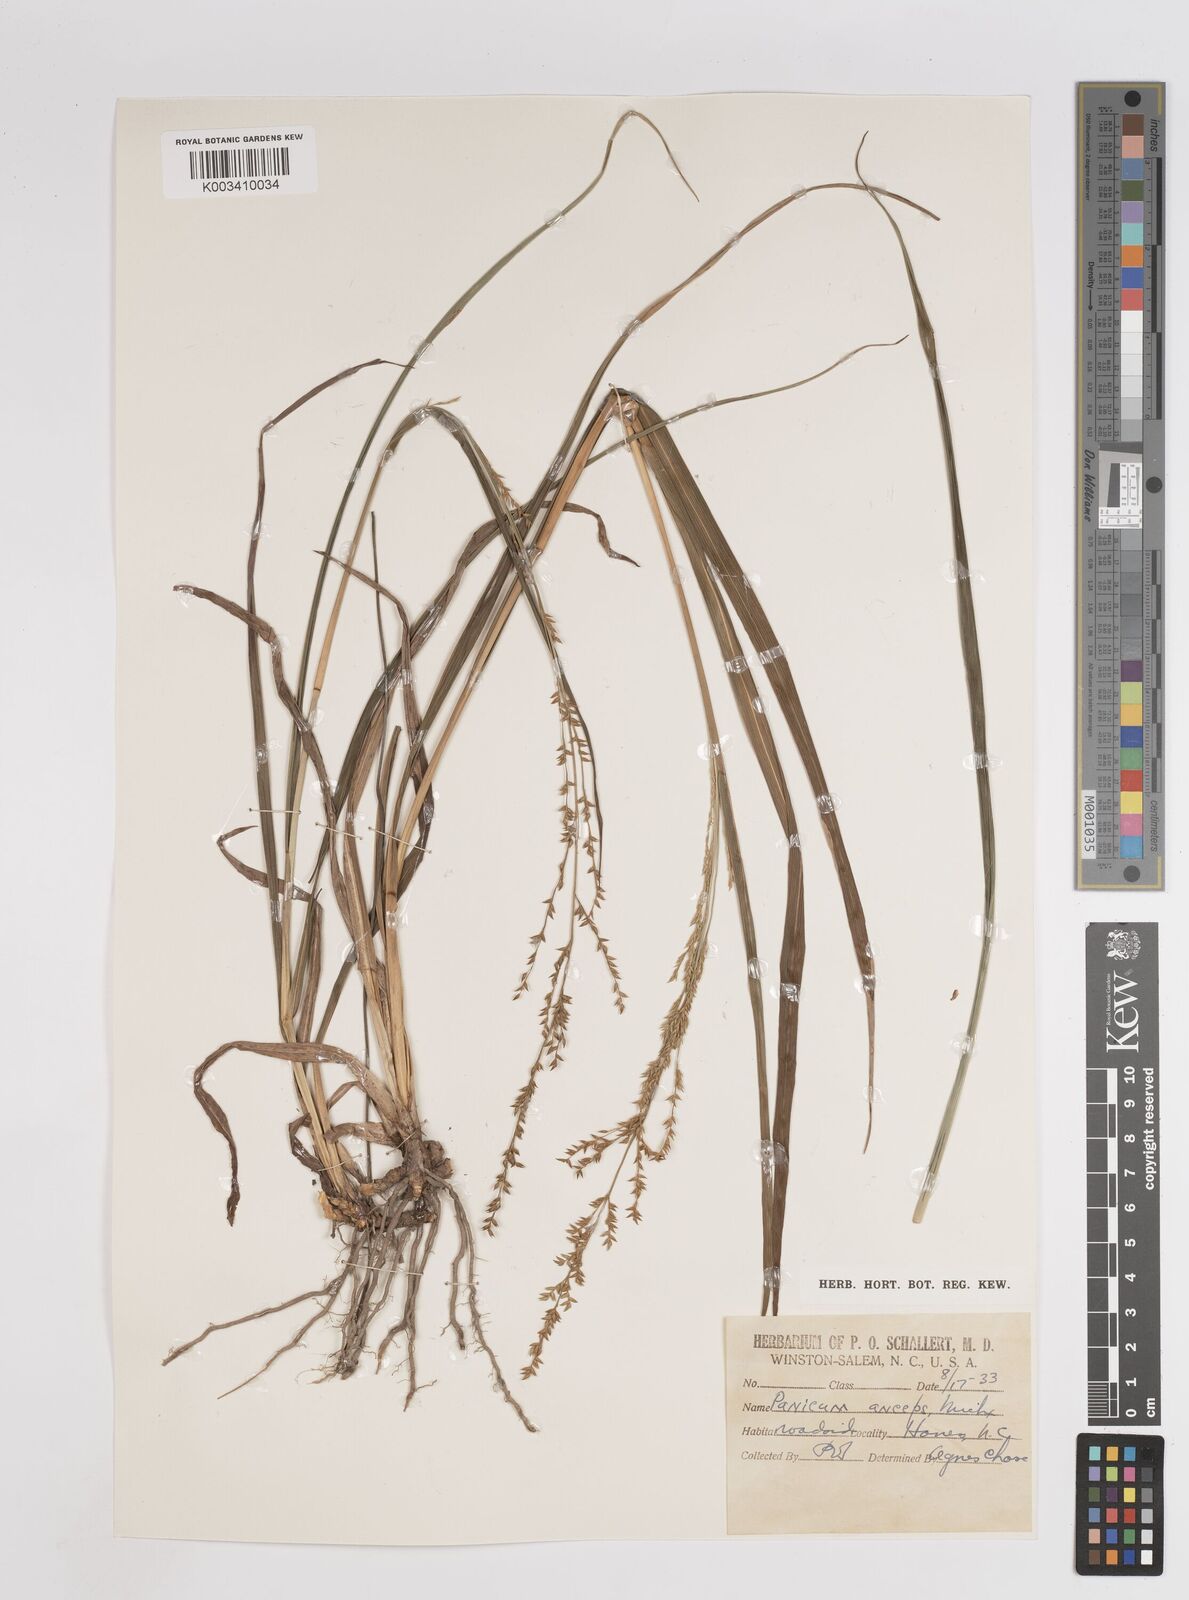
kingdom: Plantae
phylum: Tracheophyta
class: Liliopsida
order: Poales
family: Poaceae
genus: Coleataenia
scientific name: Coleataenia anceps
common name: Beaked panic grass
